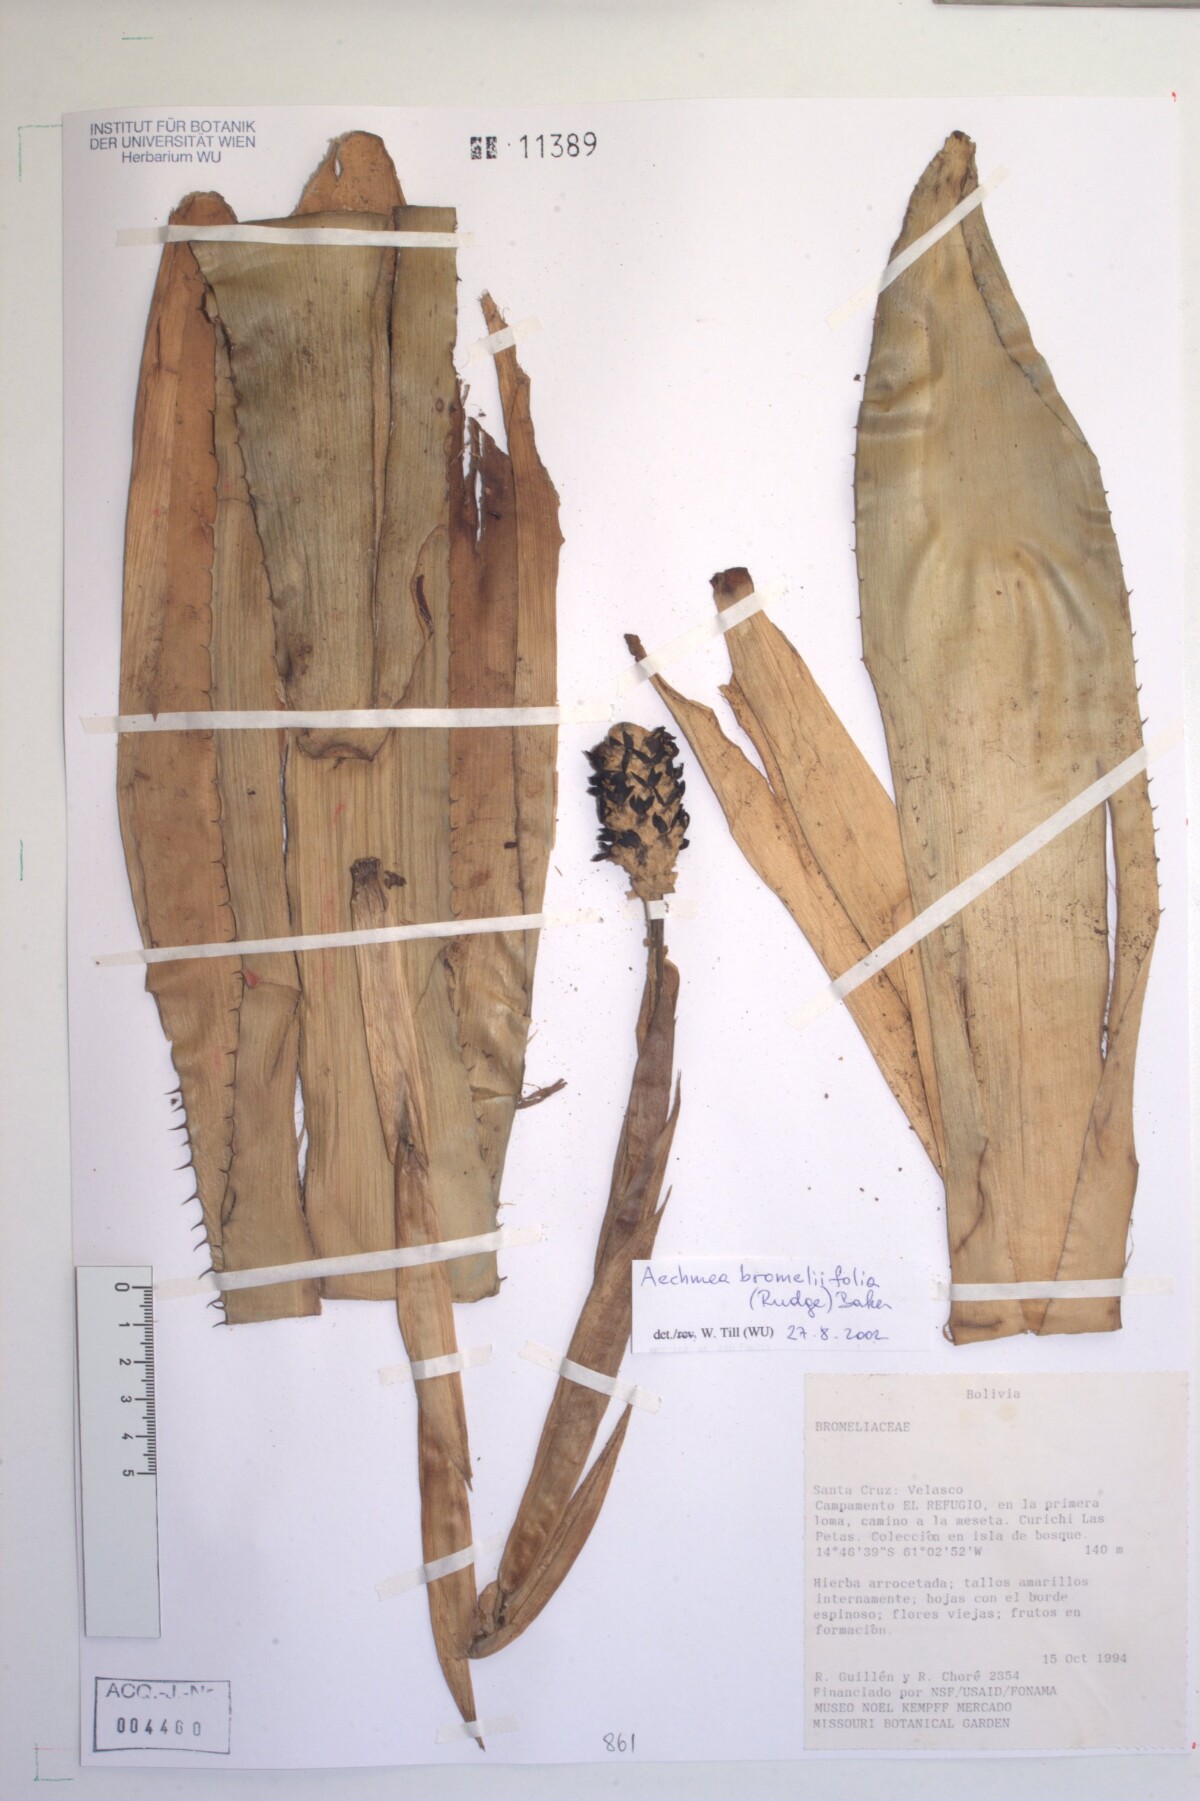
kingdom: Plantae
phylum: Tracheophyta
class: Liliopsida
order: Poales
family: Bromeliaceae
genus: Aechmea
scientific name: Aechmea bromeliifolia
